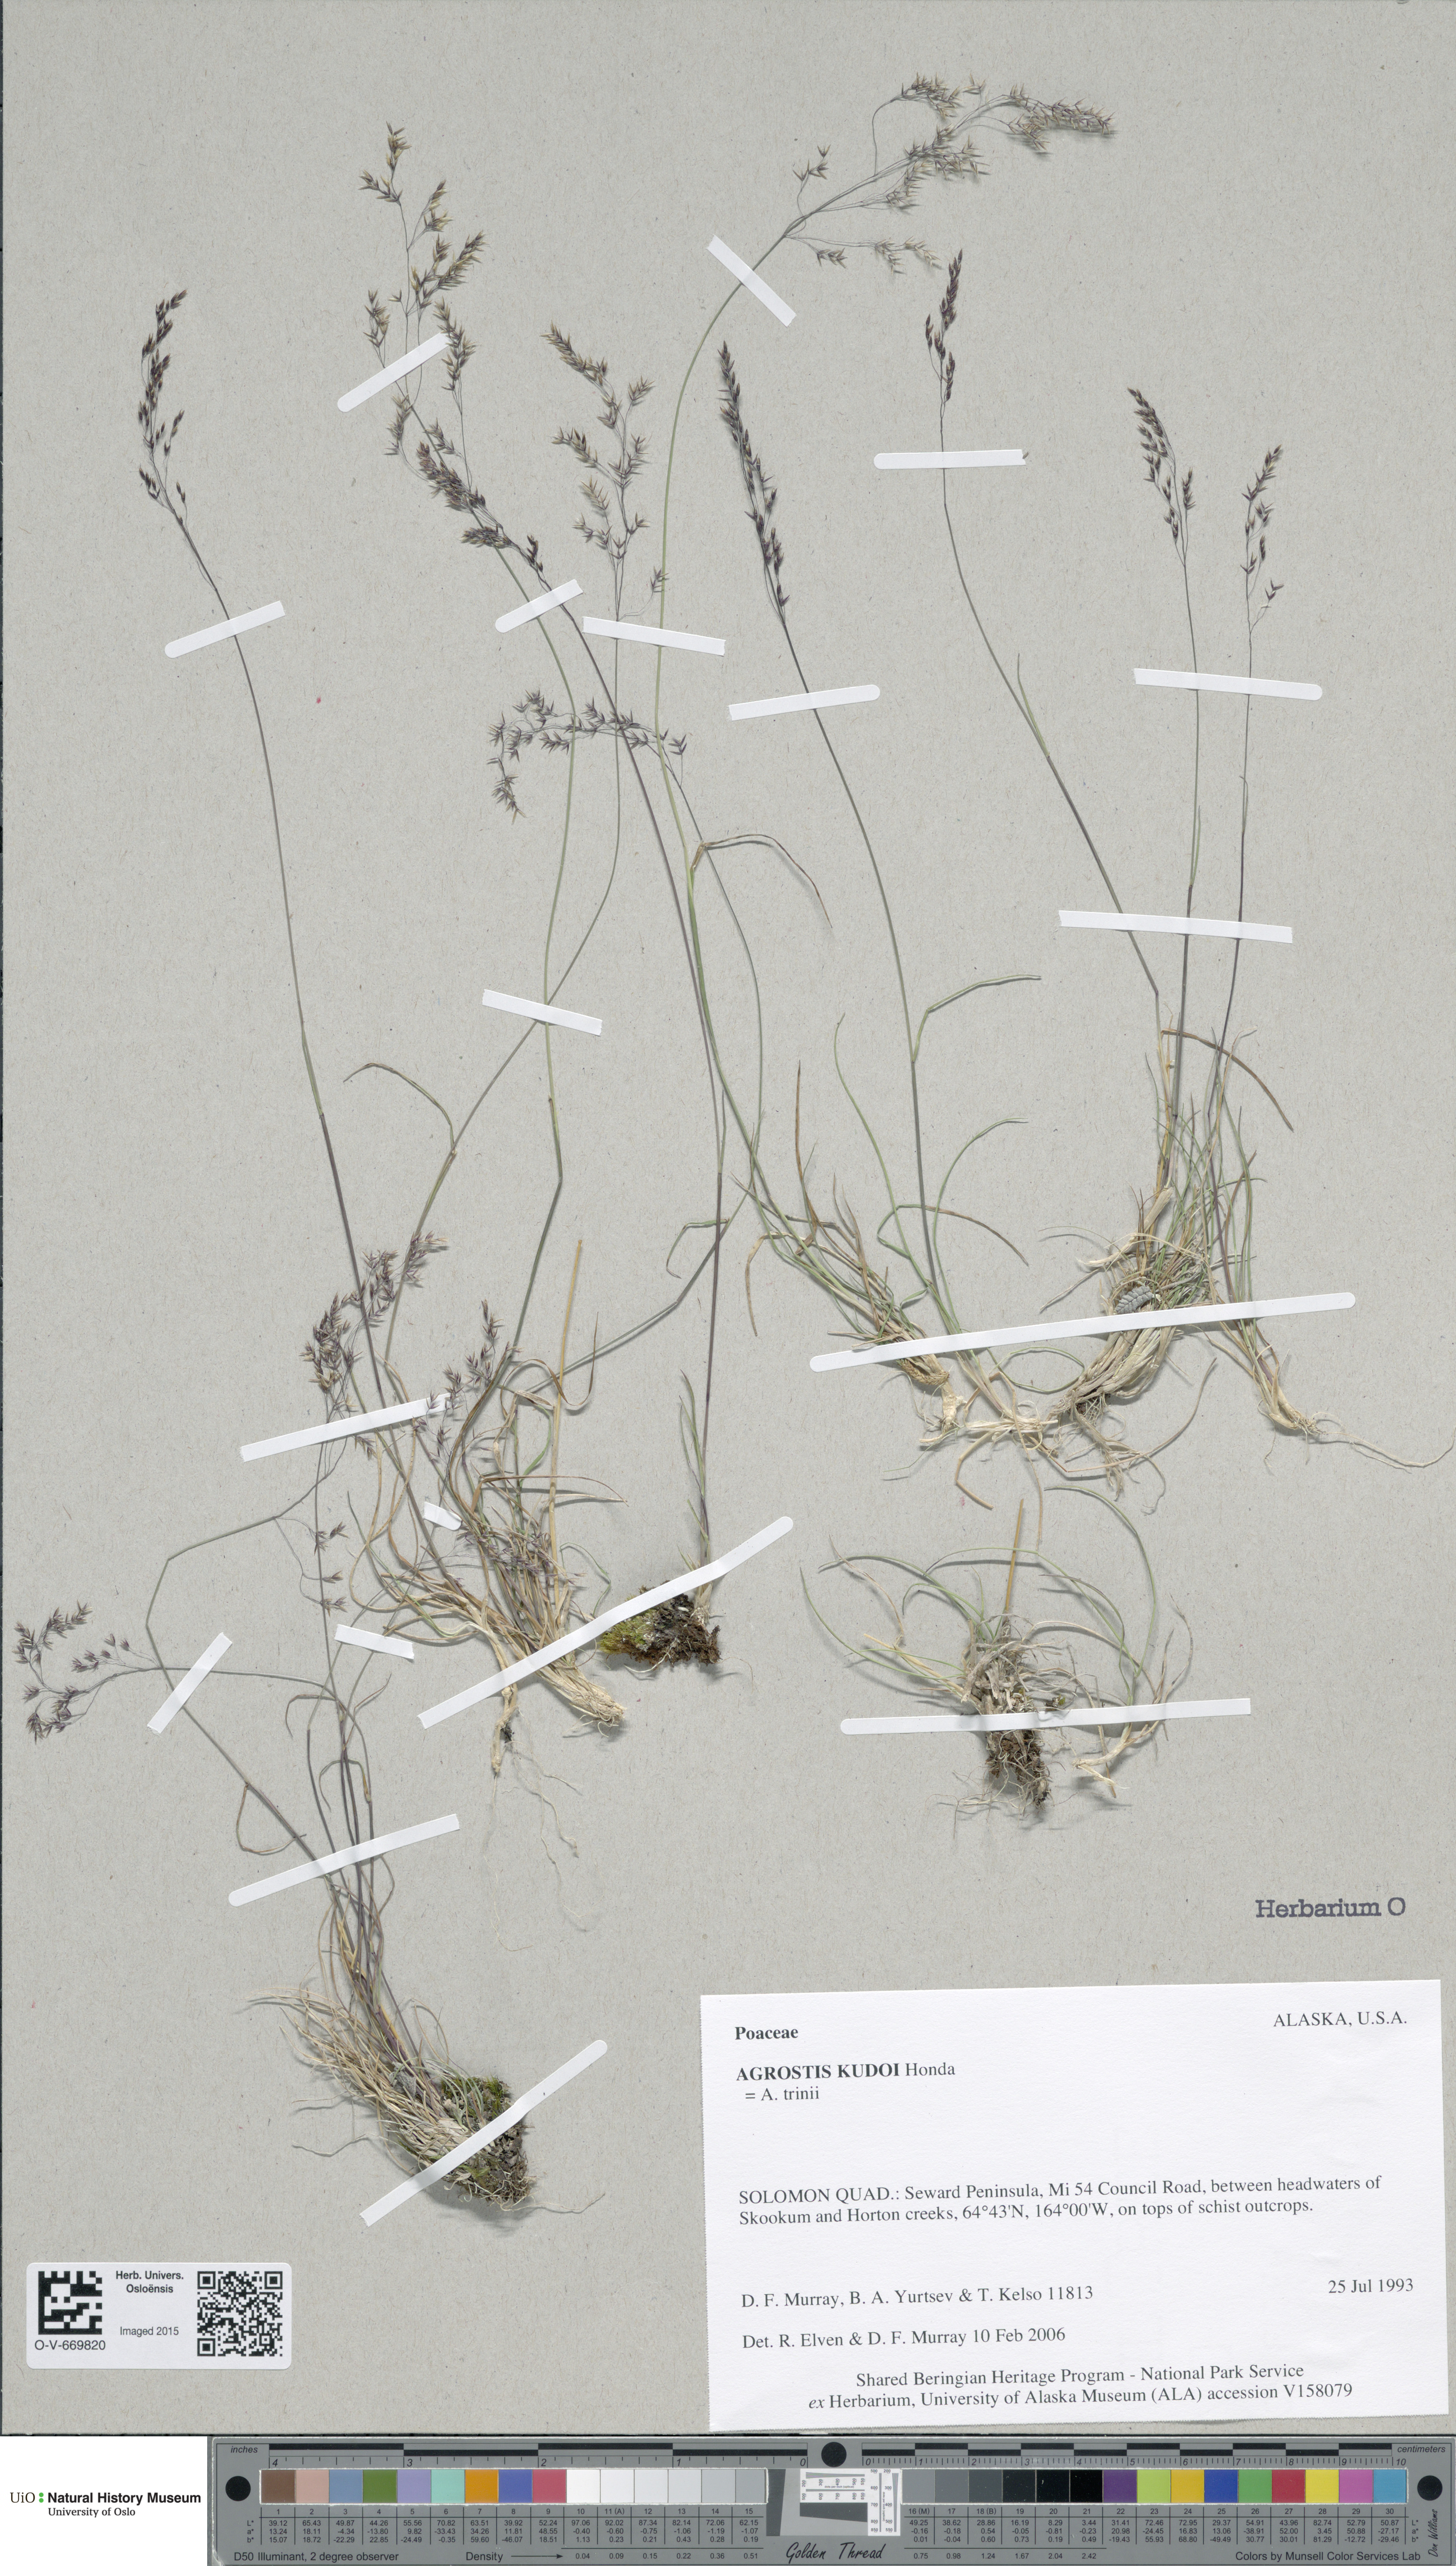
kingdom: Plantae
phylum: Tracheophyta
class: Liliopsida
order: Poales
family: Poaceae
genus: Agrostis
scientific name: Agrostis vinealis
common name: Brown bent
